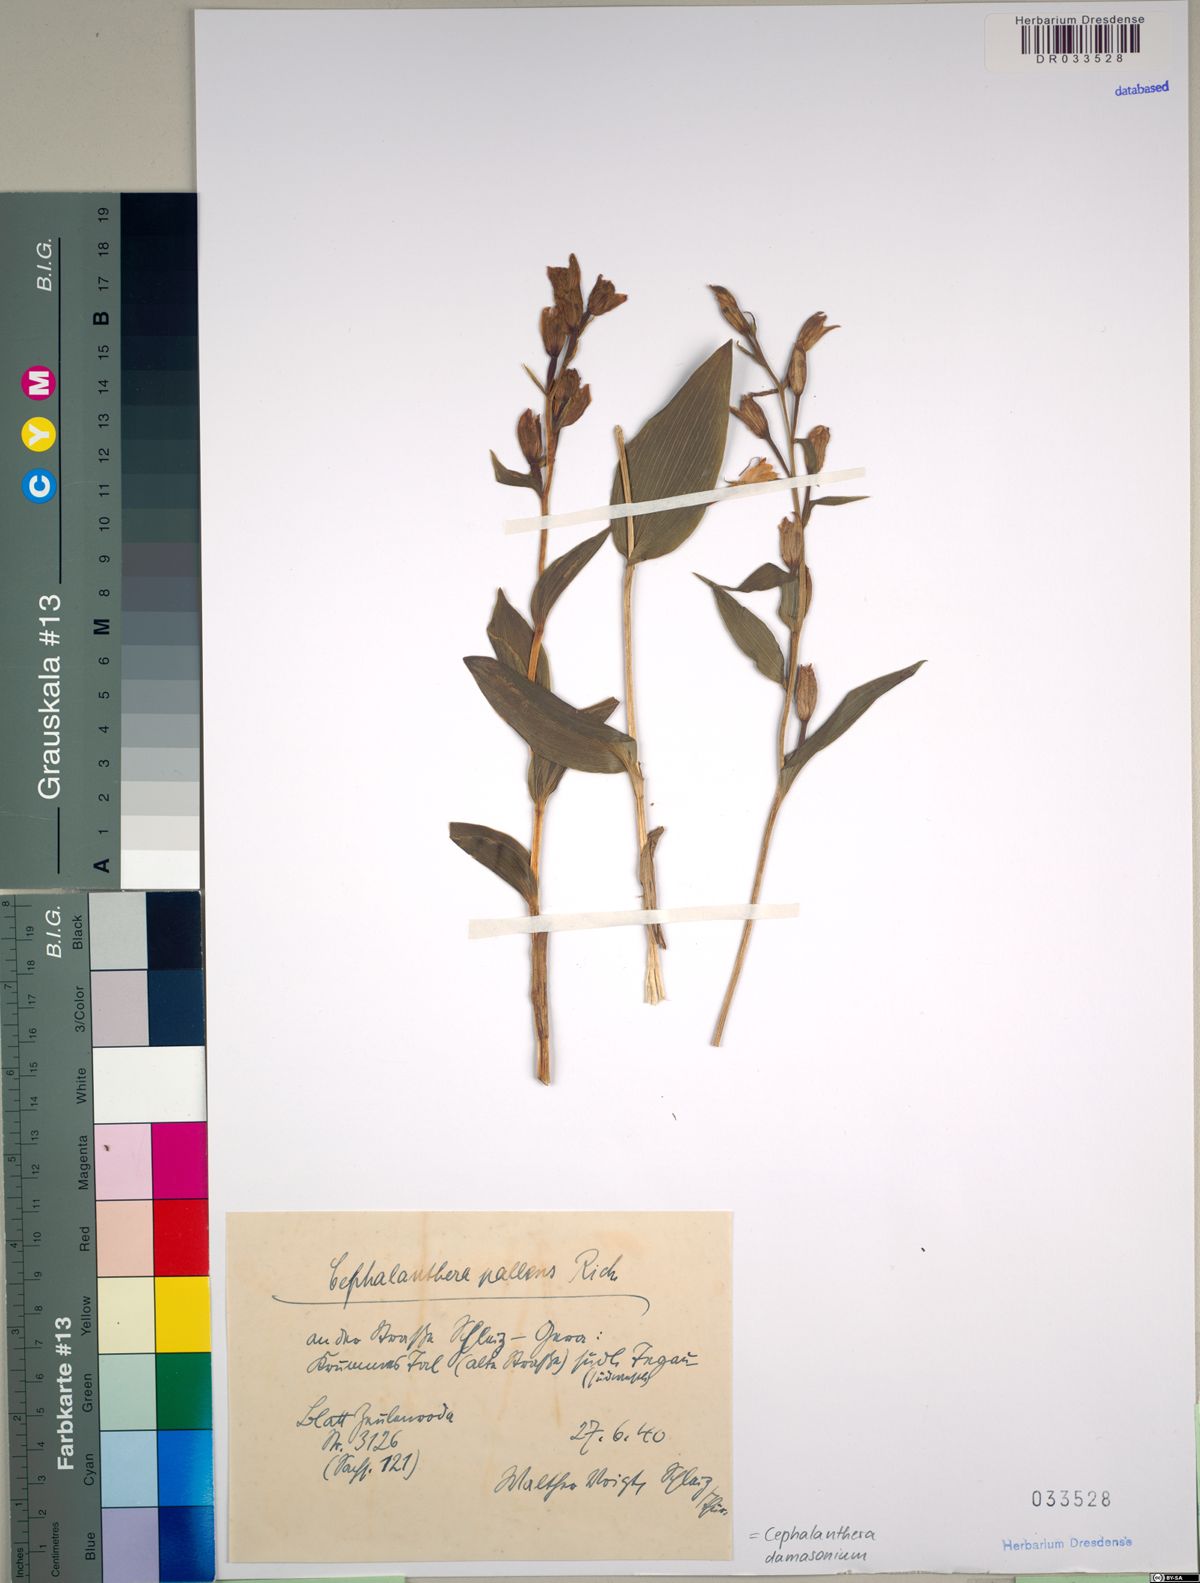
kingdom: Plantae
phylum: Tracheophyta
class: Liliopsida
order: Asparagales
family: Orchidaceae
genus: Cephalanthera
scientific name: Cephalanthera damasonium
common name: White helleborine
